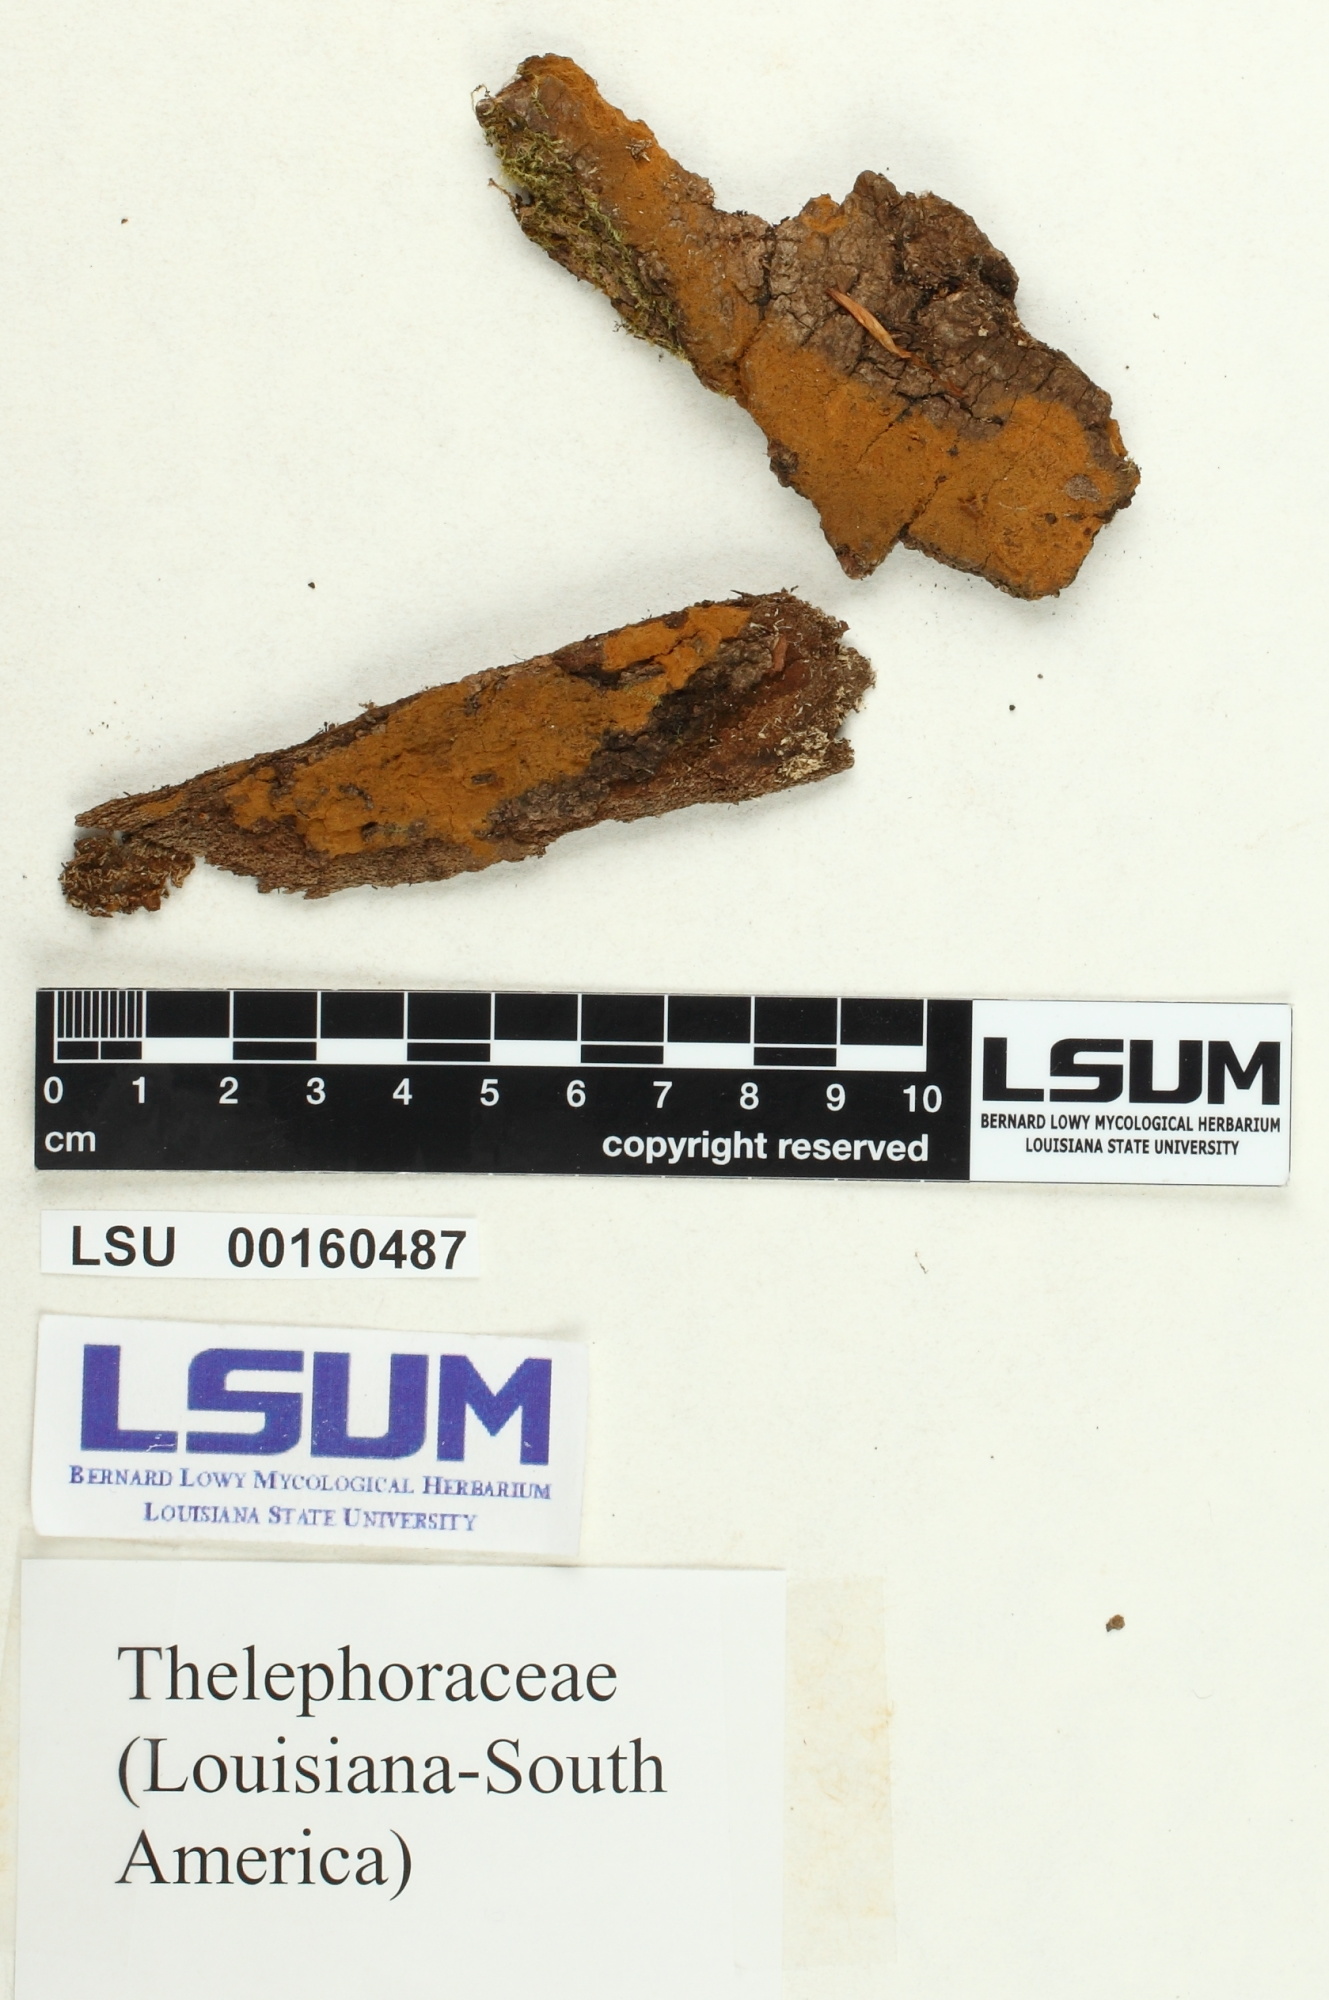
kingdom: Fungi
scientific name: Fungi
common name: Fungi
